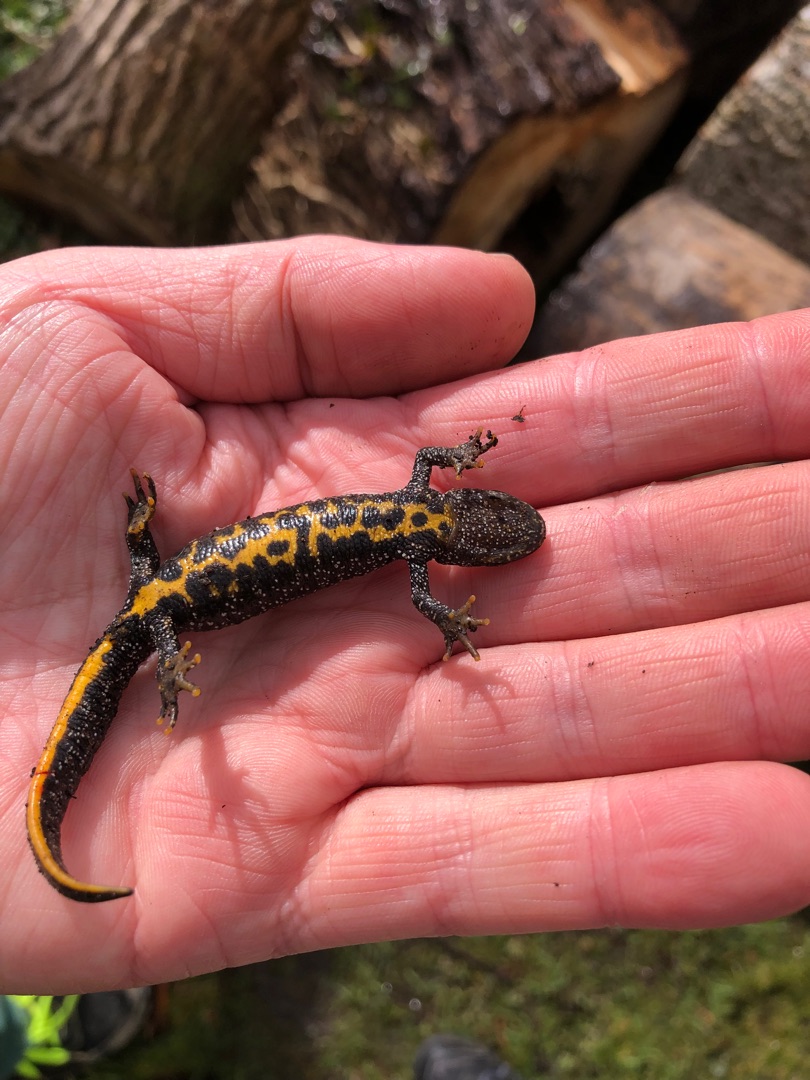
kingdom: Animalia
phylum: Chordata
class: Amphibia
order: Caudata
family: Salamandridae
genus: Triturus
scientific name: Triturus cristatus
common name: Stor vandsalamander
